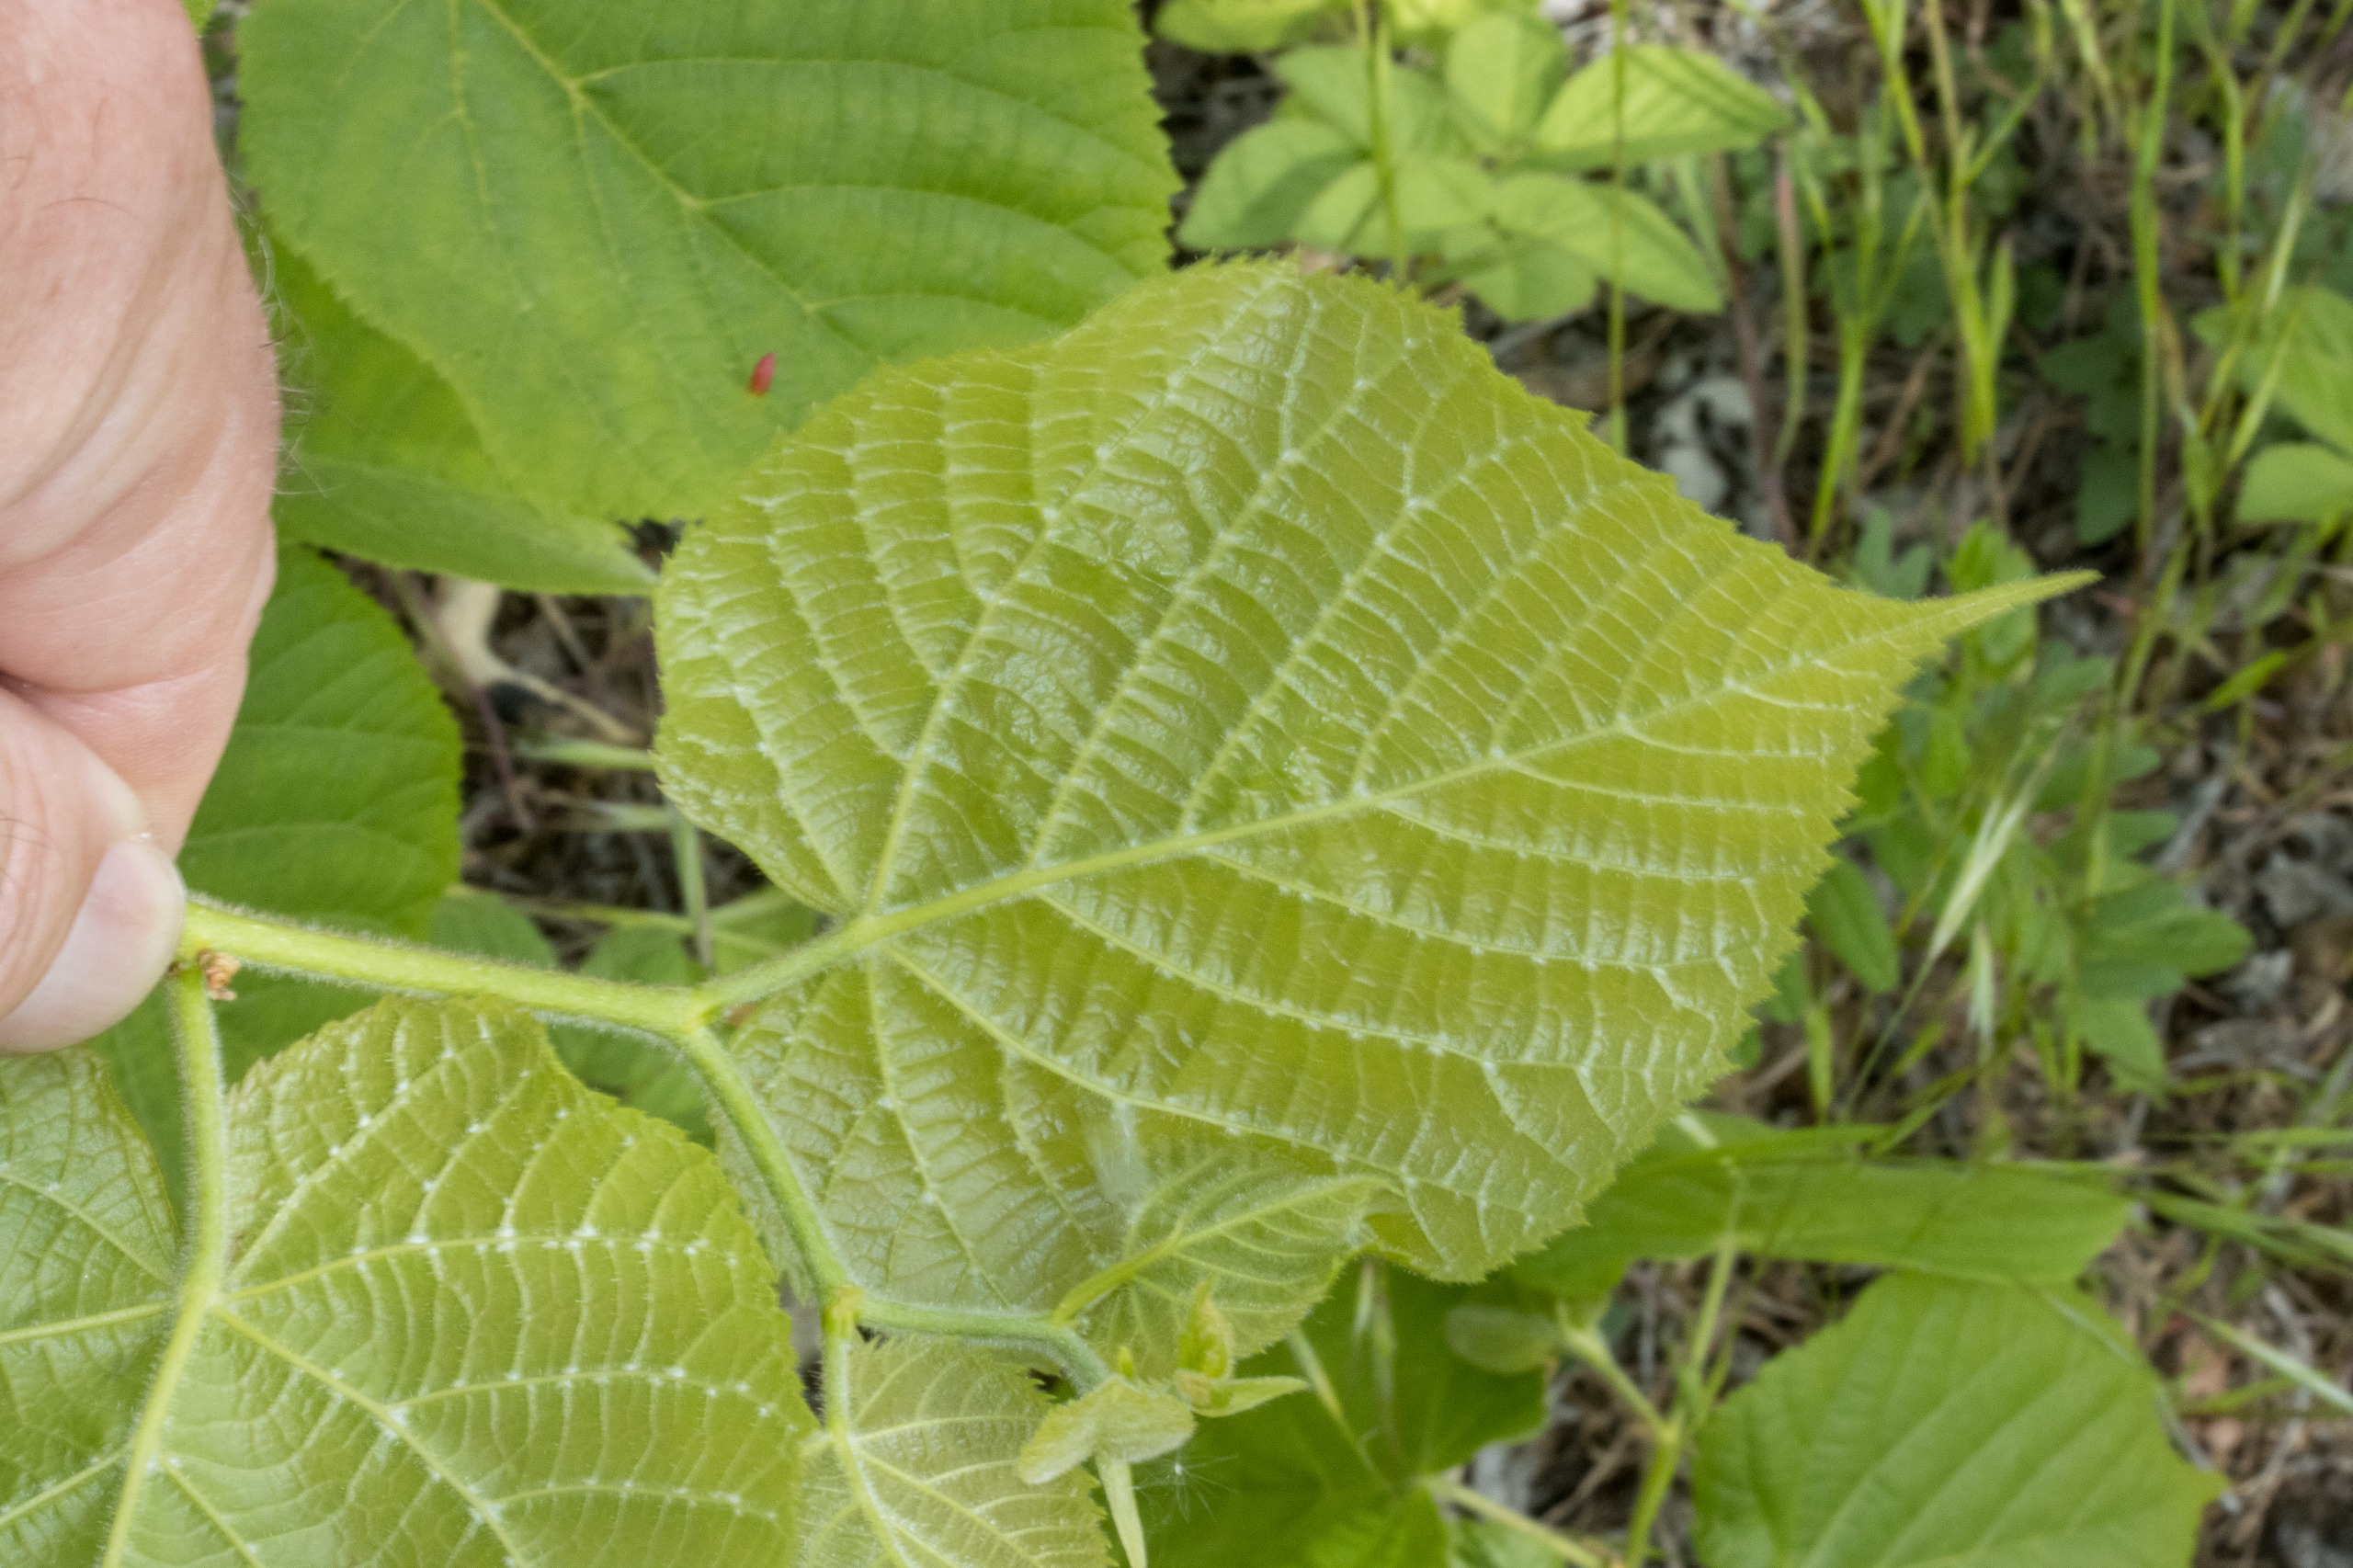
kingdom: Plantae
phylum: Tracheophyta
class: Magnoliopsida
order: Malvales
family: Malvaceae
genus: Tilia
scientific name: Tilia platyphyllos
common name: Storbladet lind
